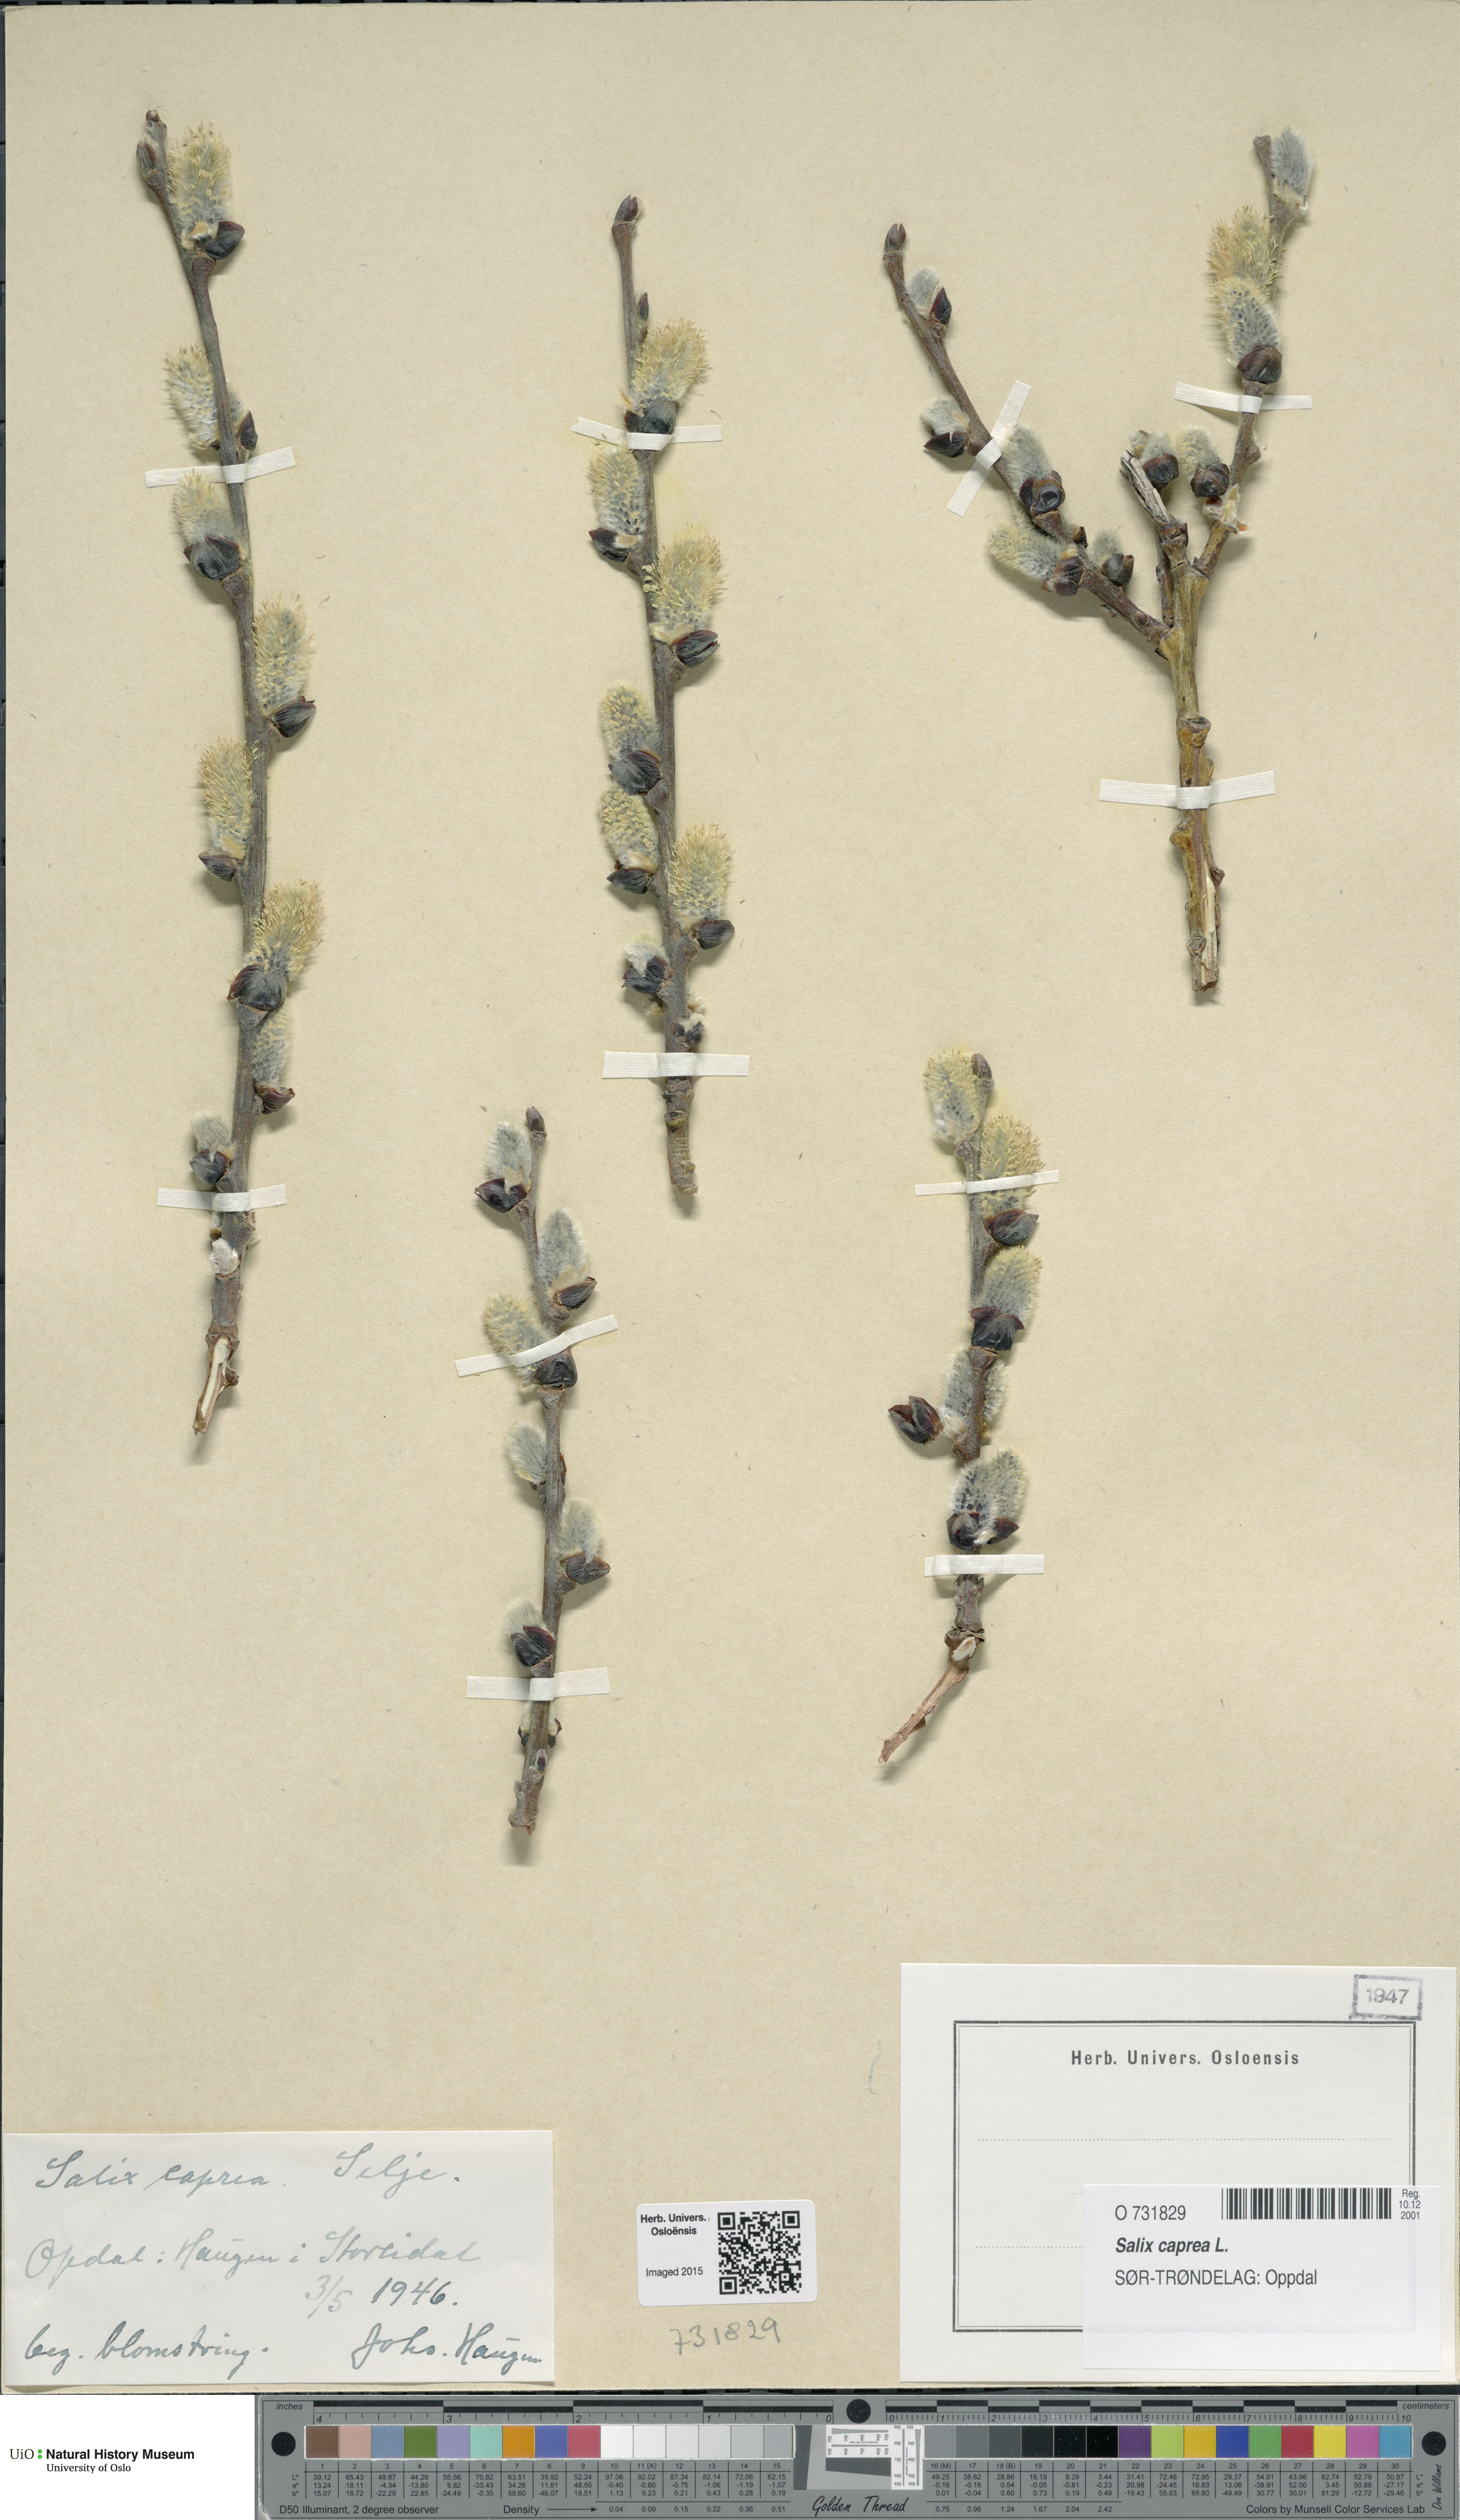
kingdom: Plantae
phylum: Tracheophyta
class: Magnoliopsida
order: Malpighiales
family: Salicaceae
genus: Salix
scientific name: Salix caprea
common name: Goat willow
